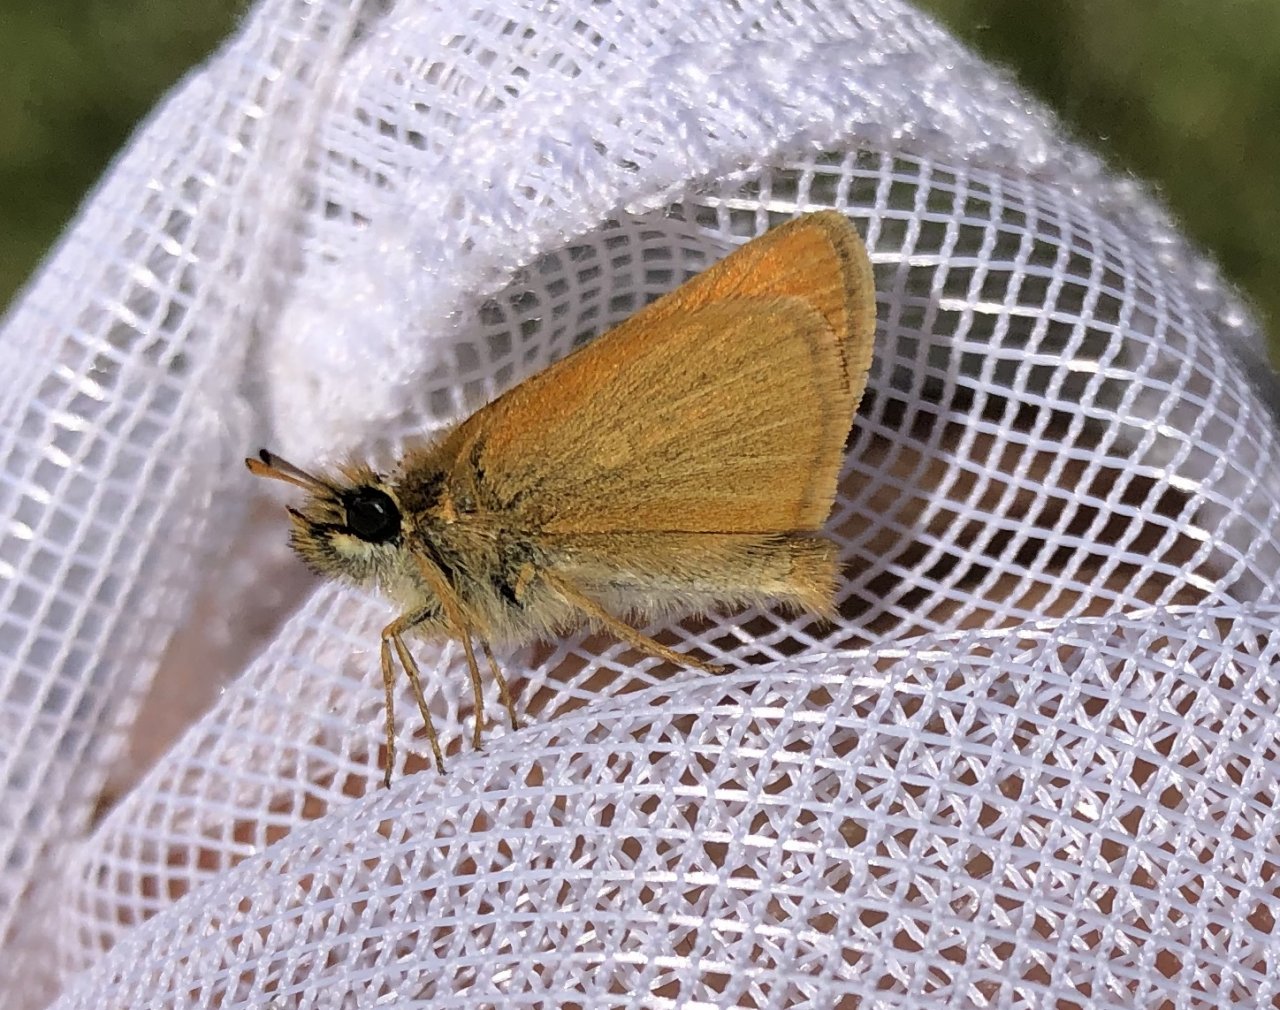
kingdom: Animalia
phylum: Arthropoda
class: Insecta
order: Lepidoptera
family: Hesperiidae
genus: Thymelicus
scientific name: Thymelicus lineola
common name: European Skipper
